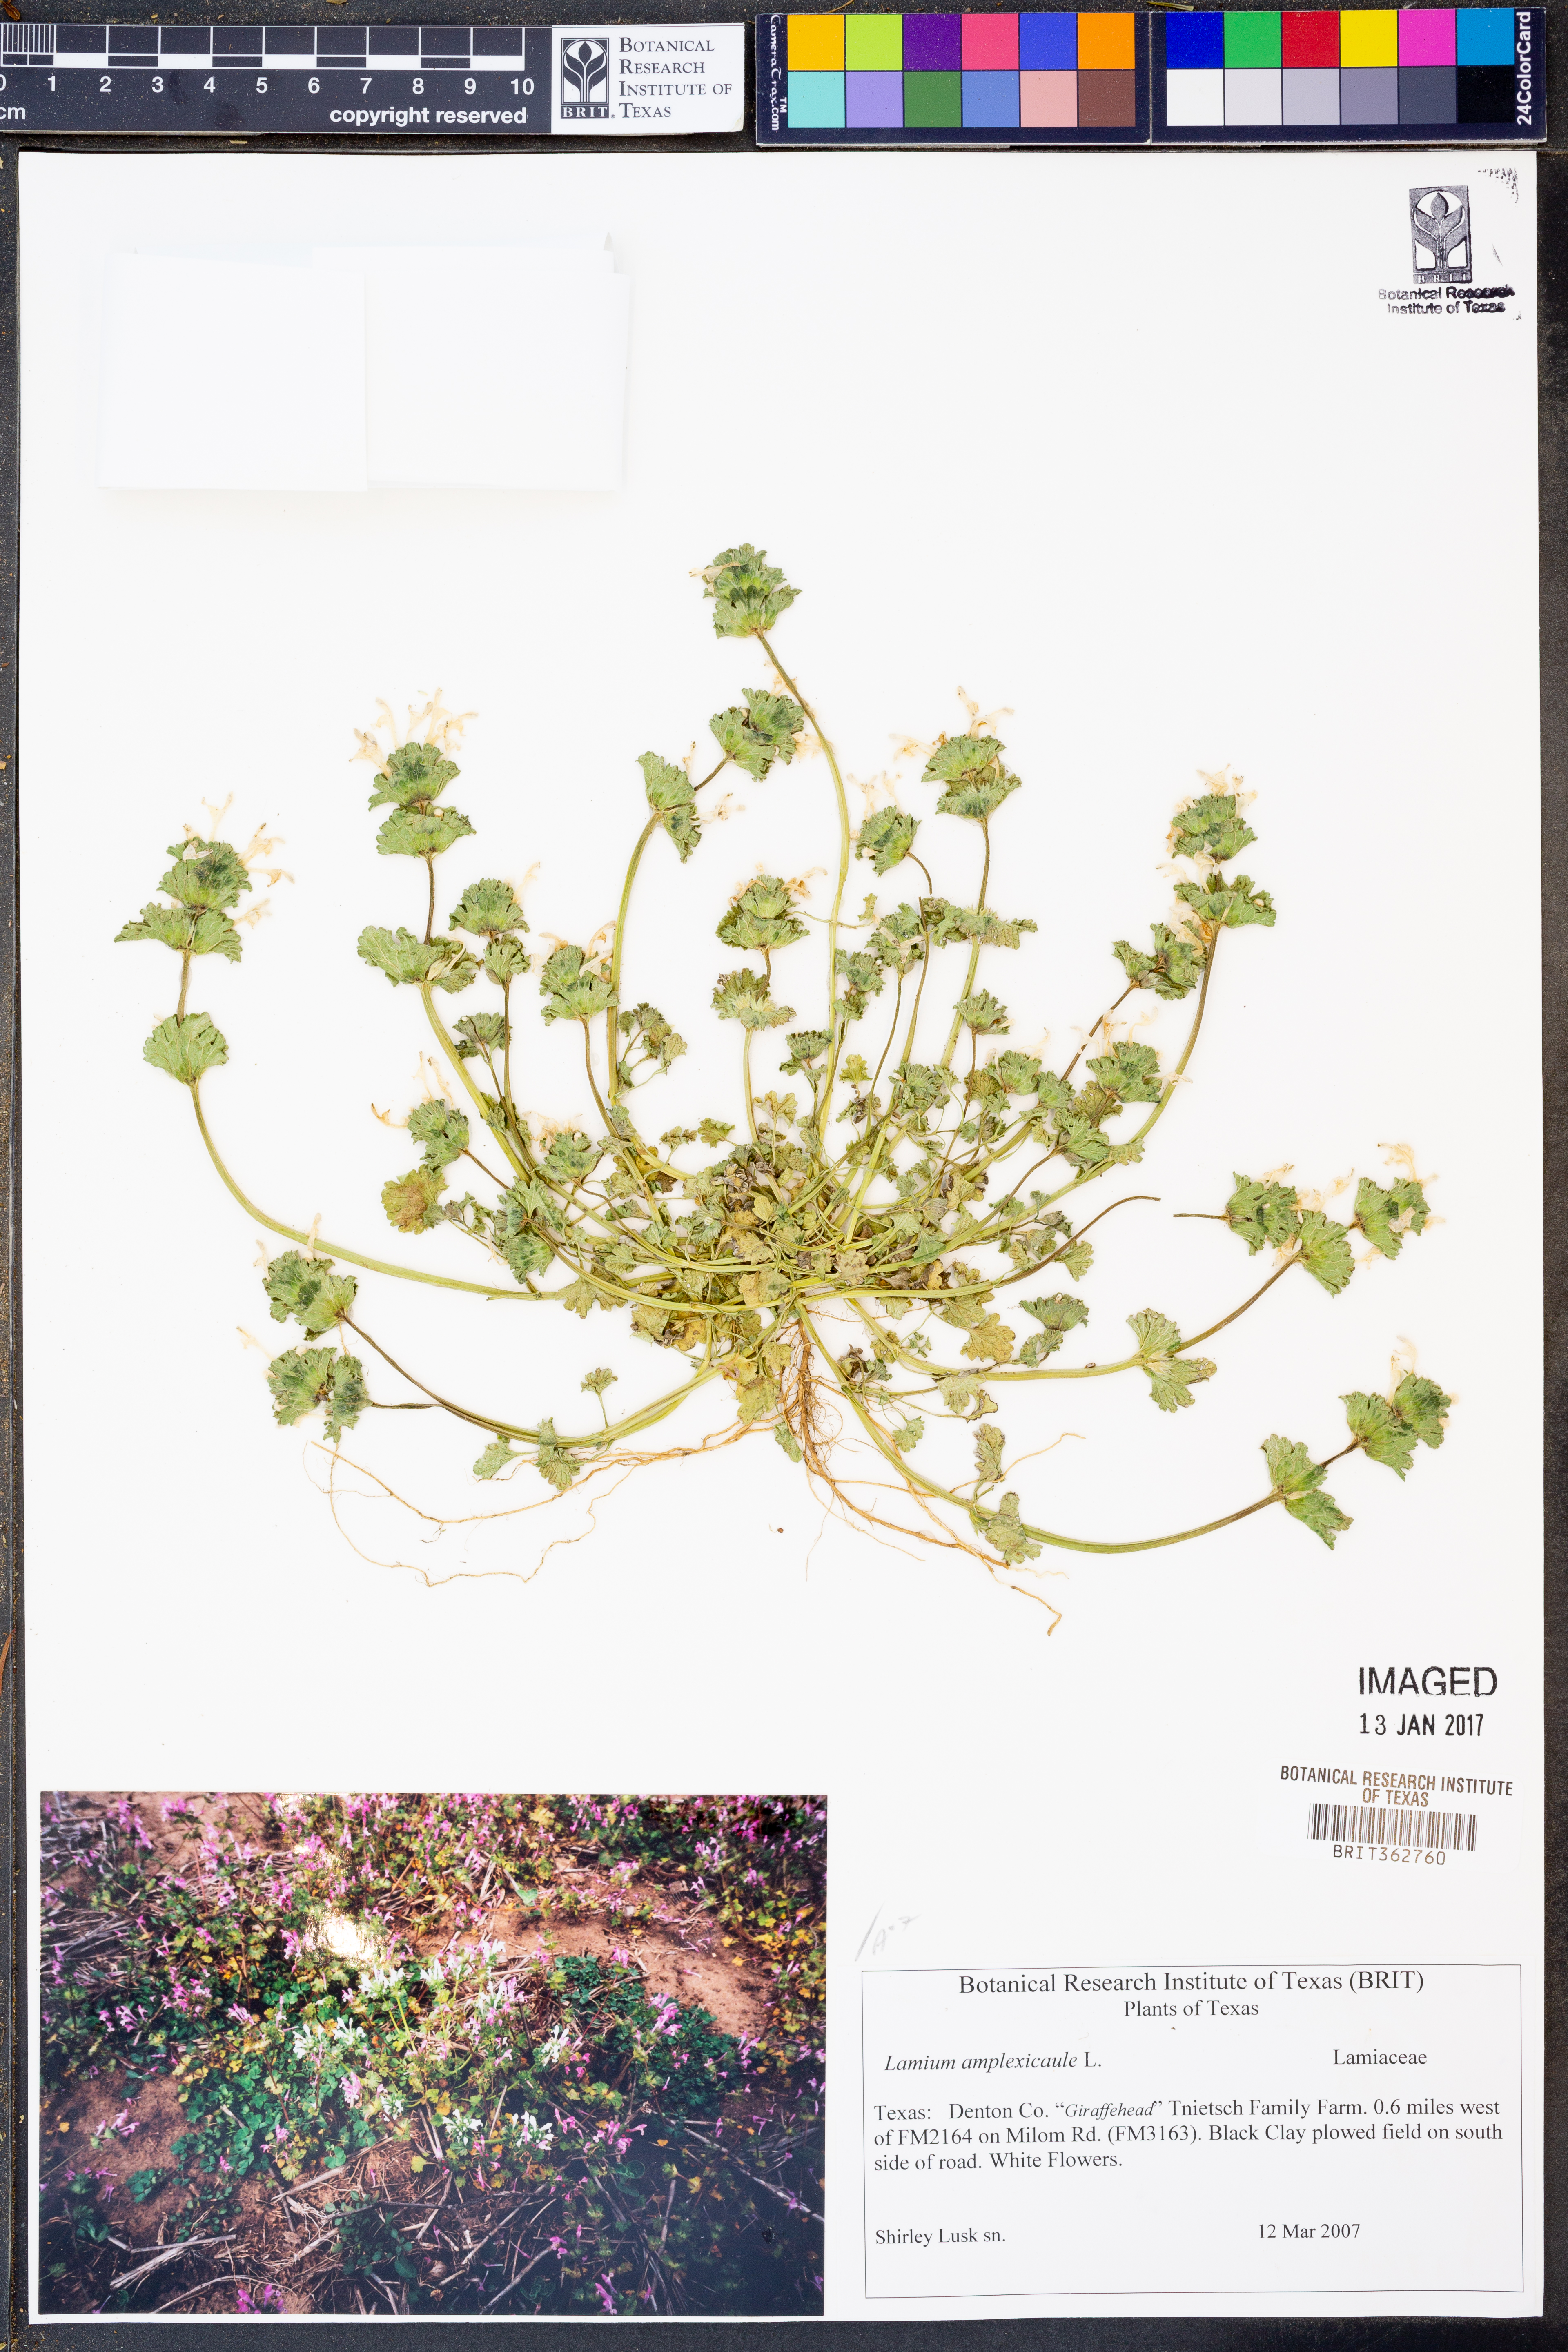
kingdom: Plantae
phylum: Tracheophyta
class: Magnoliopsida
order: Lamiales
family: Lamiaceae
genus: Lamium
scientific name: Lamium amplexicaule
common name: Henbit dead-nettle
